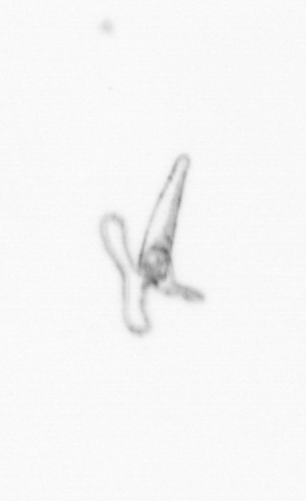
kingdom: Animalia
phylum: Mollusca
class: Gastropoda
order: Pteropoda
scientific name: Pteropoda
